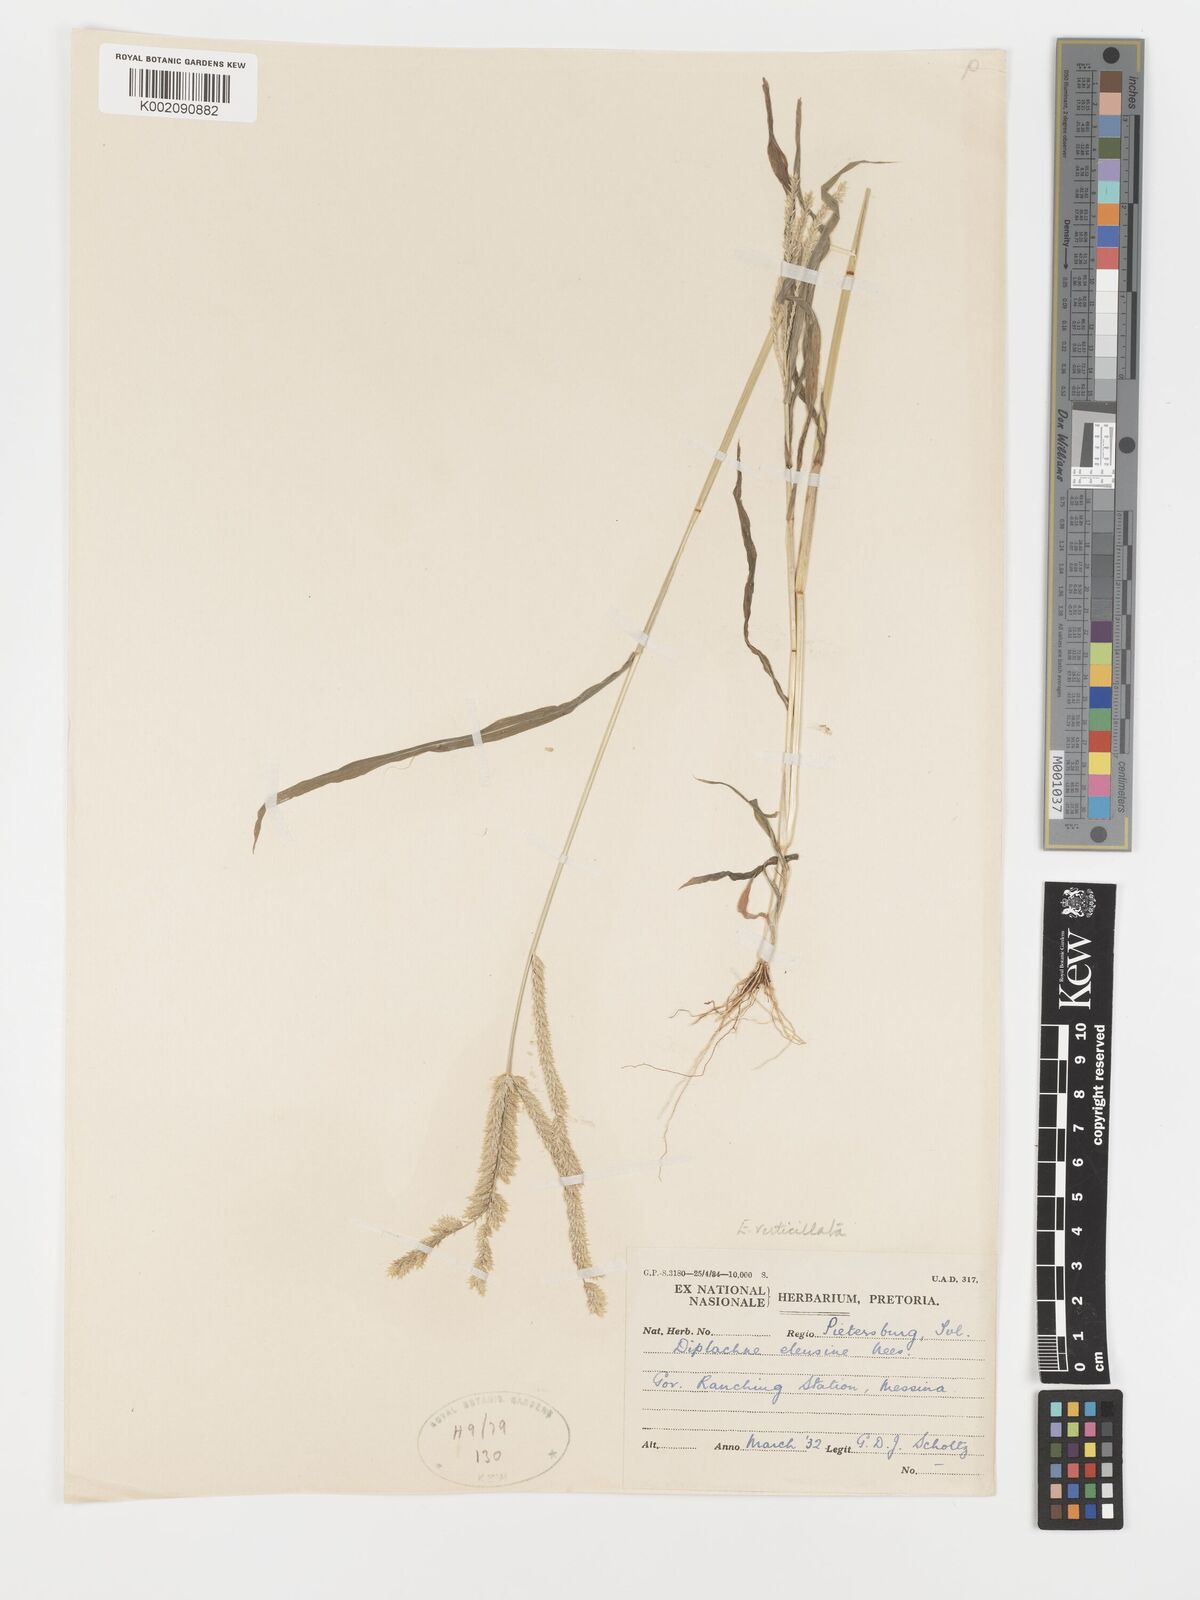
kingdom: Plantae
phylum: Tracheophyta
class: Liliopsida
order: Poales
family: Poaceae
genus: Acrachne
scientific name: Acrachne racemosa
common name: Goosegrass
